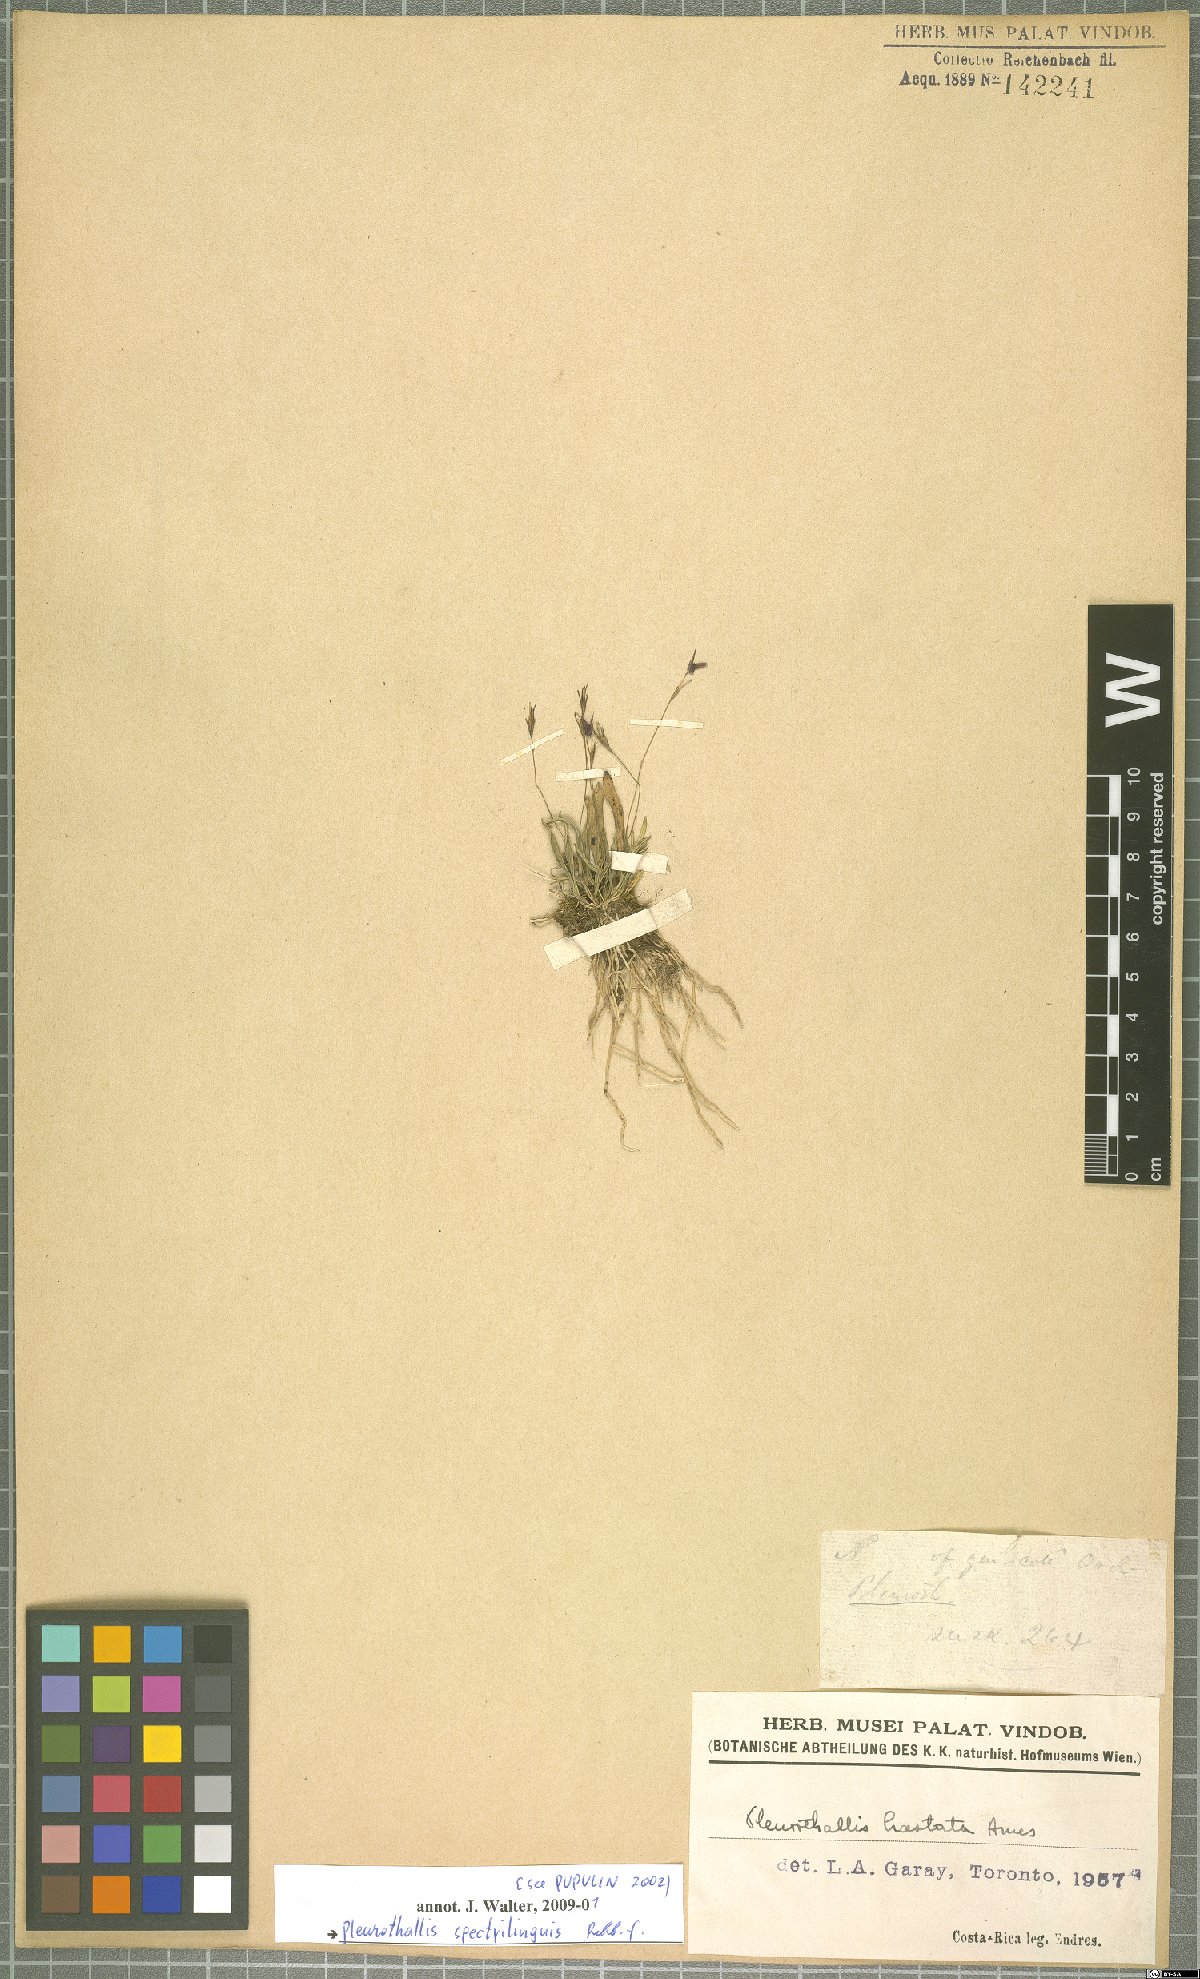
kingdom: Plantae
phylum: Tracheophyta
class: Liliopsida
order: Asparagales
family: Orchidaceae
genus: Muscarella
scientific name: Muscarella marginata
